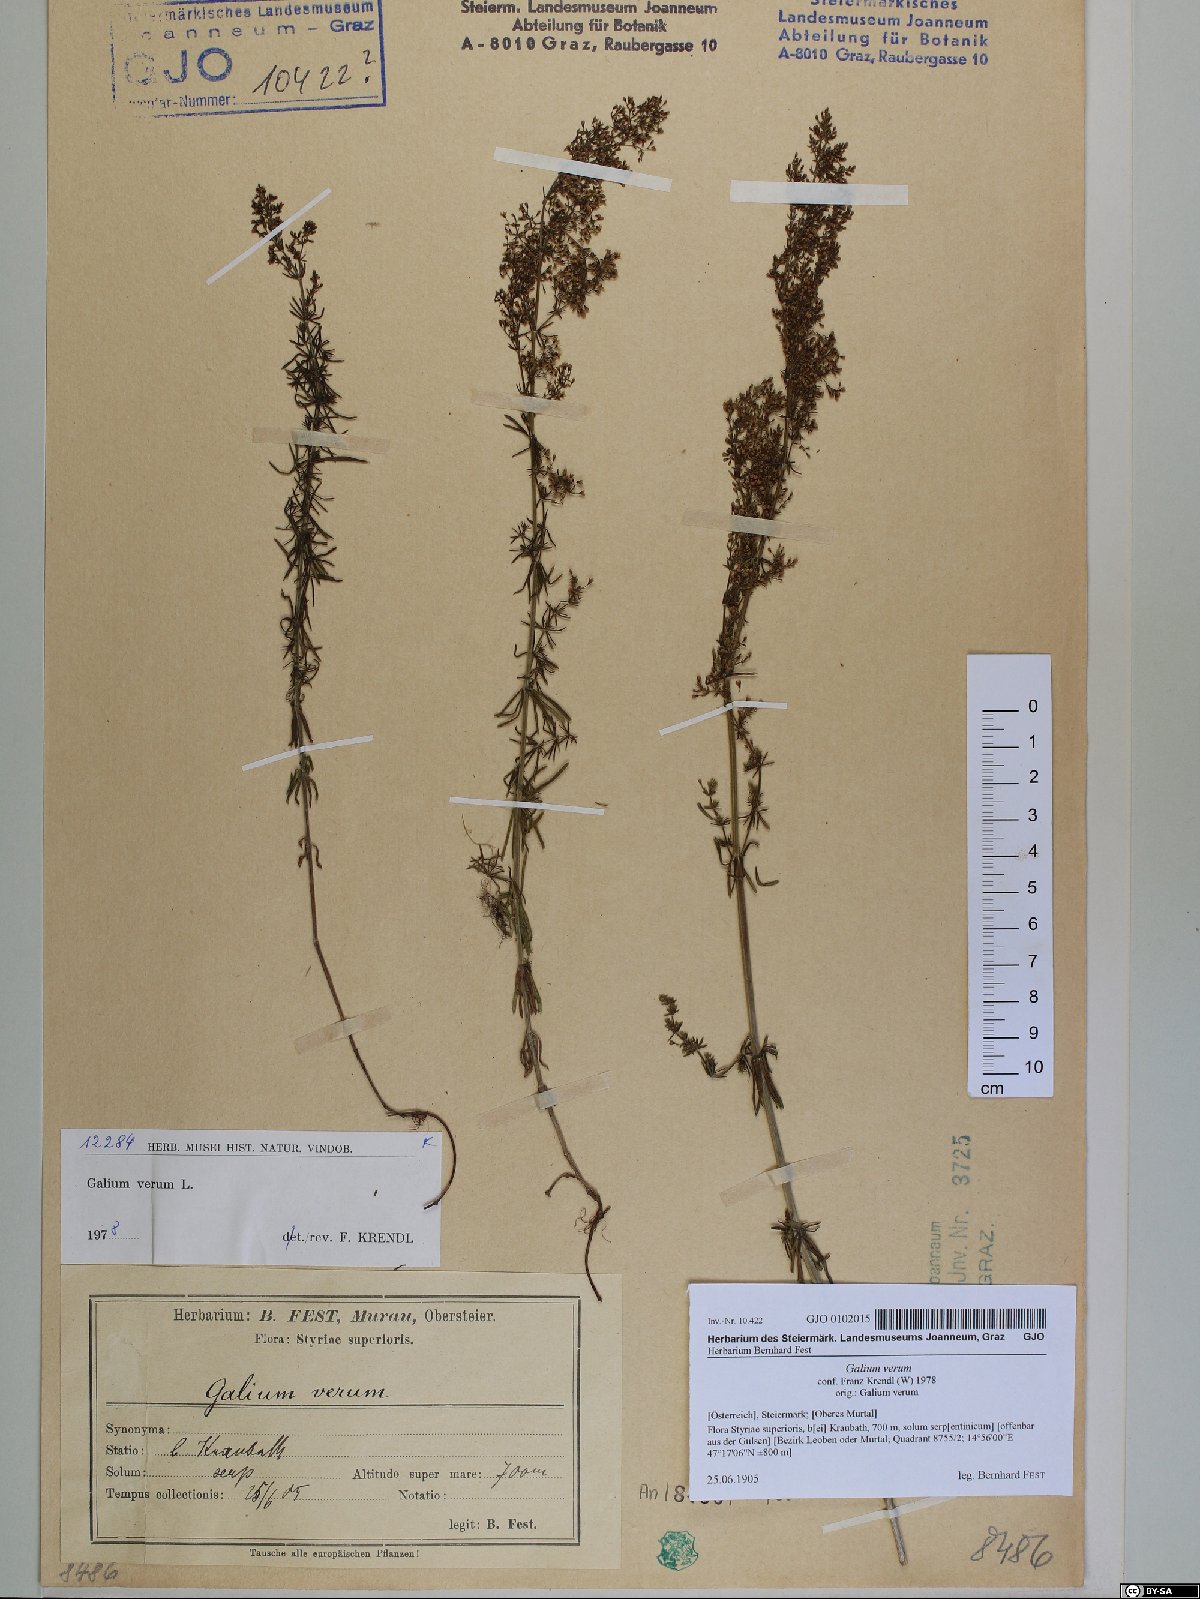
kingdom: Plantae
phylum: Tracheophyta
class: Magnoliopsida
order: Gentianales
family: Rubiaceae
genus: Galium
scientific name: Galium verum
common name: Lady's bedstraw
